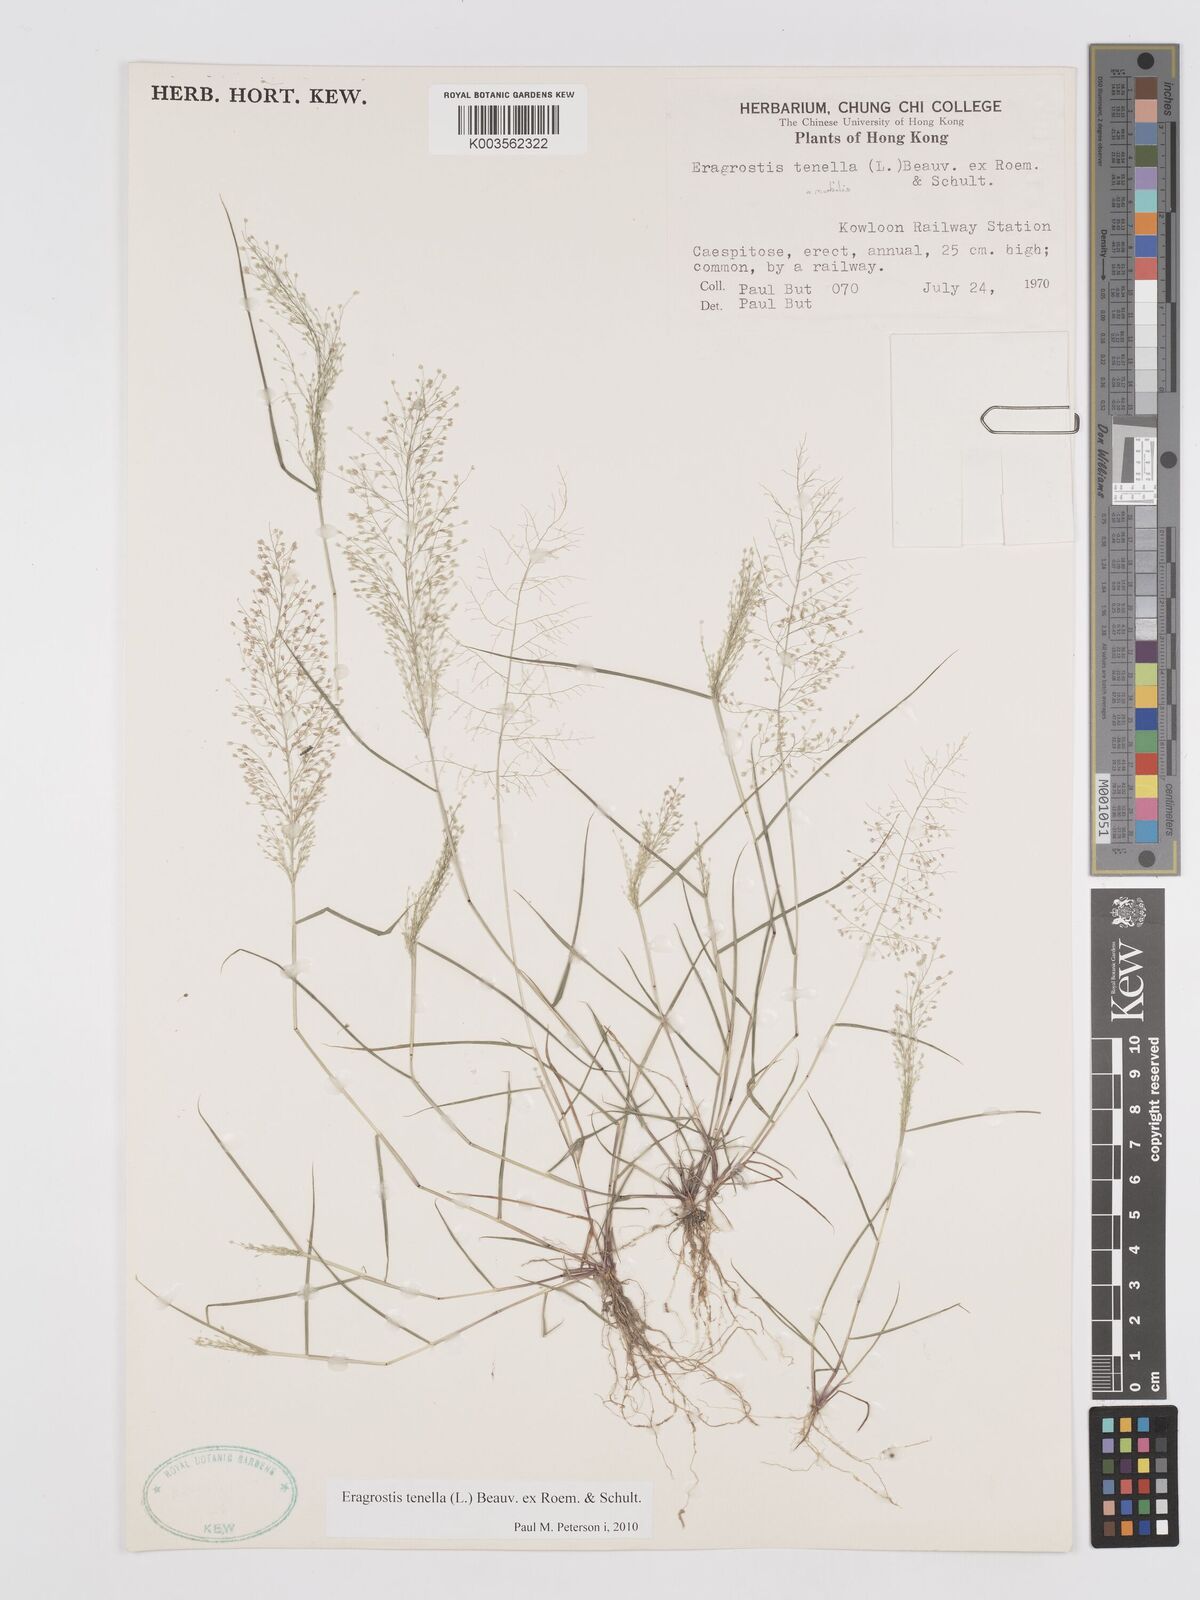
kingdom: Plantae
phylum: Tracheophyta
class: Liliopsida
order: Poales
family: Poaceae
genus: Eragrostis
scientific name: Eragrostis tenella
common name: Japanese lovegrass
